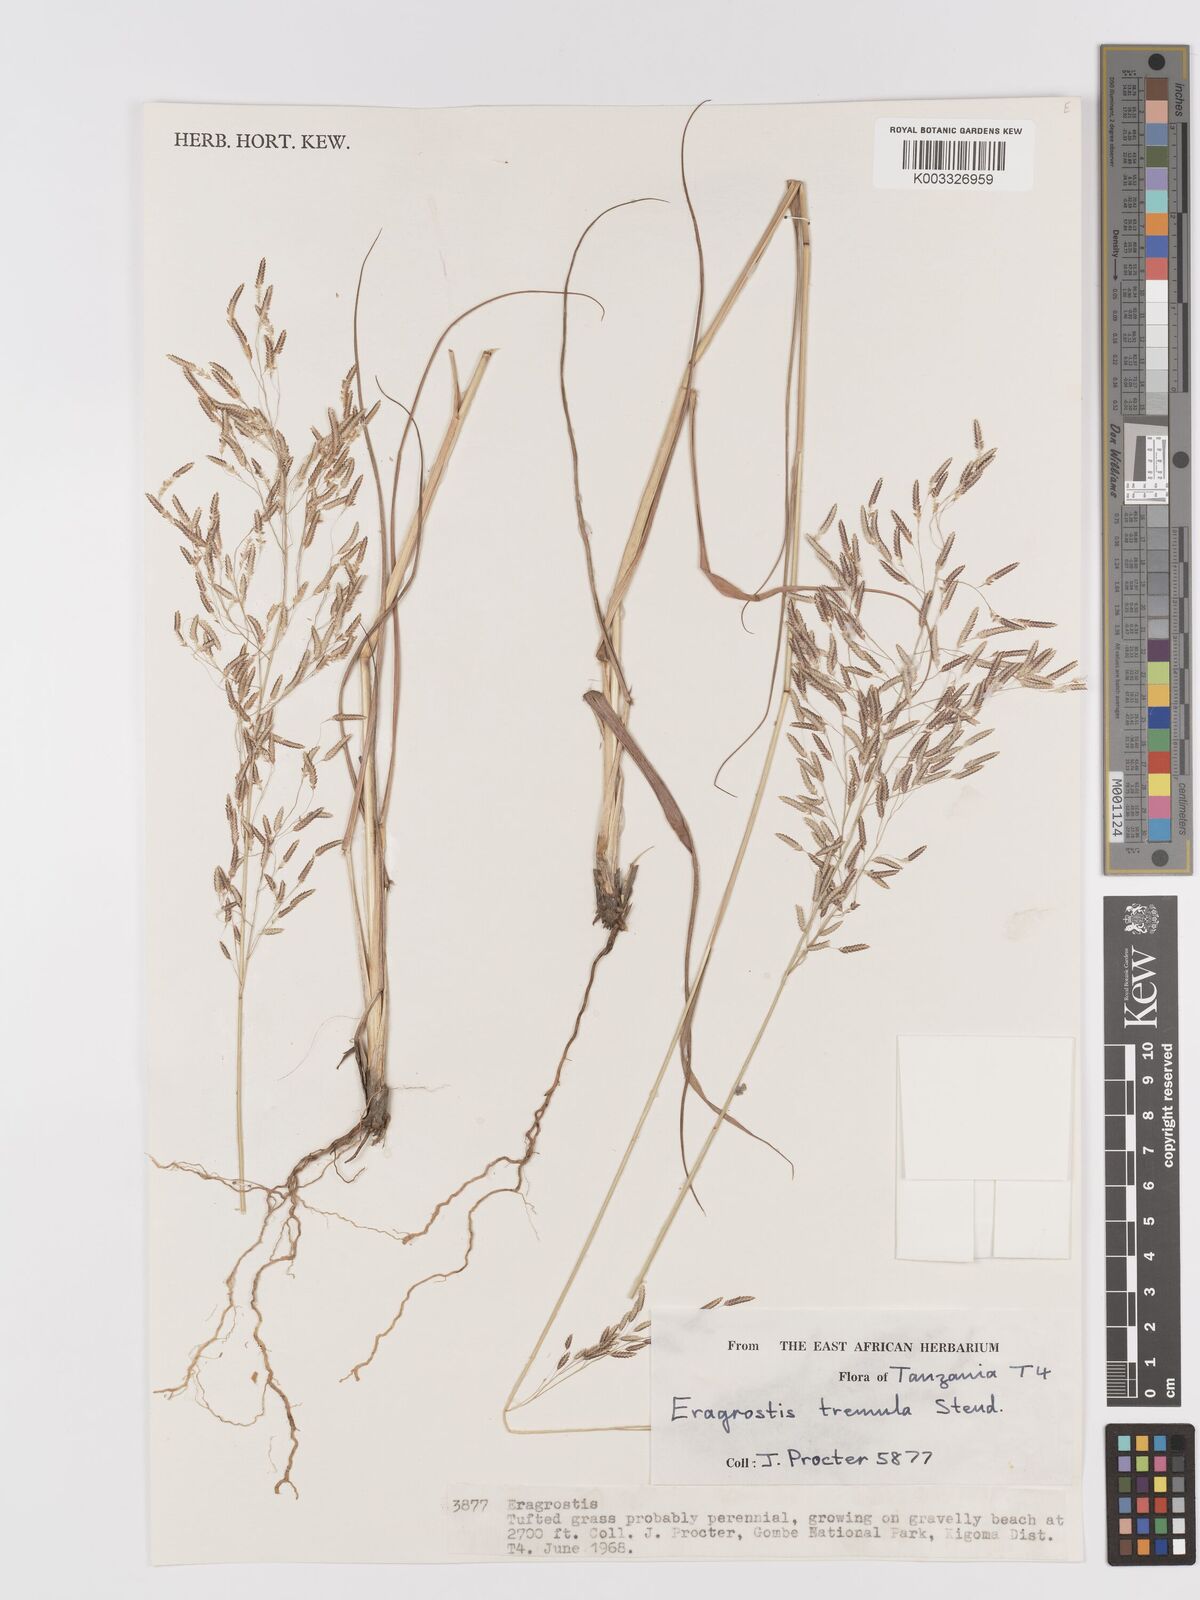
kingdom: Plantae
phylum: Tracheophyta
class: Liliopsida
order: Poales
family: Poaceae
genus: Eragrostis
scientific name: Eragrostis tremula
